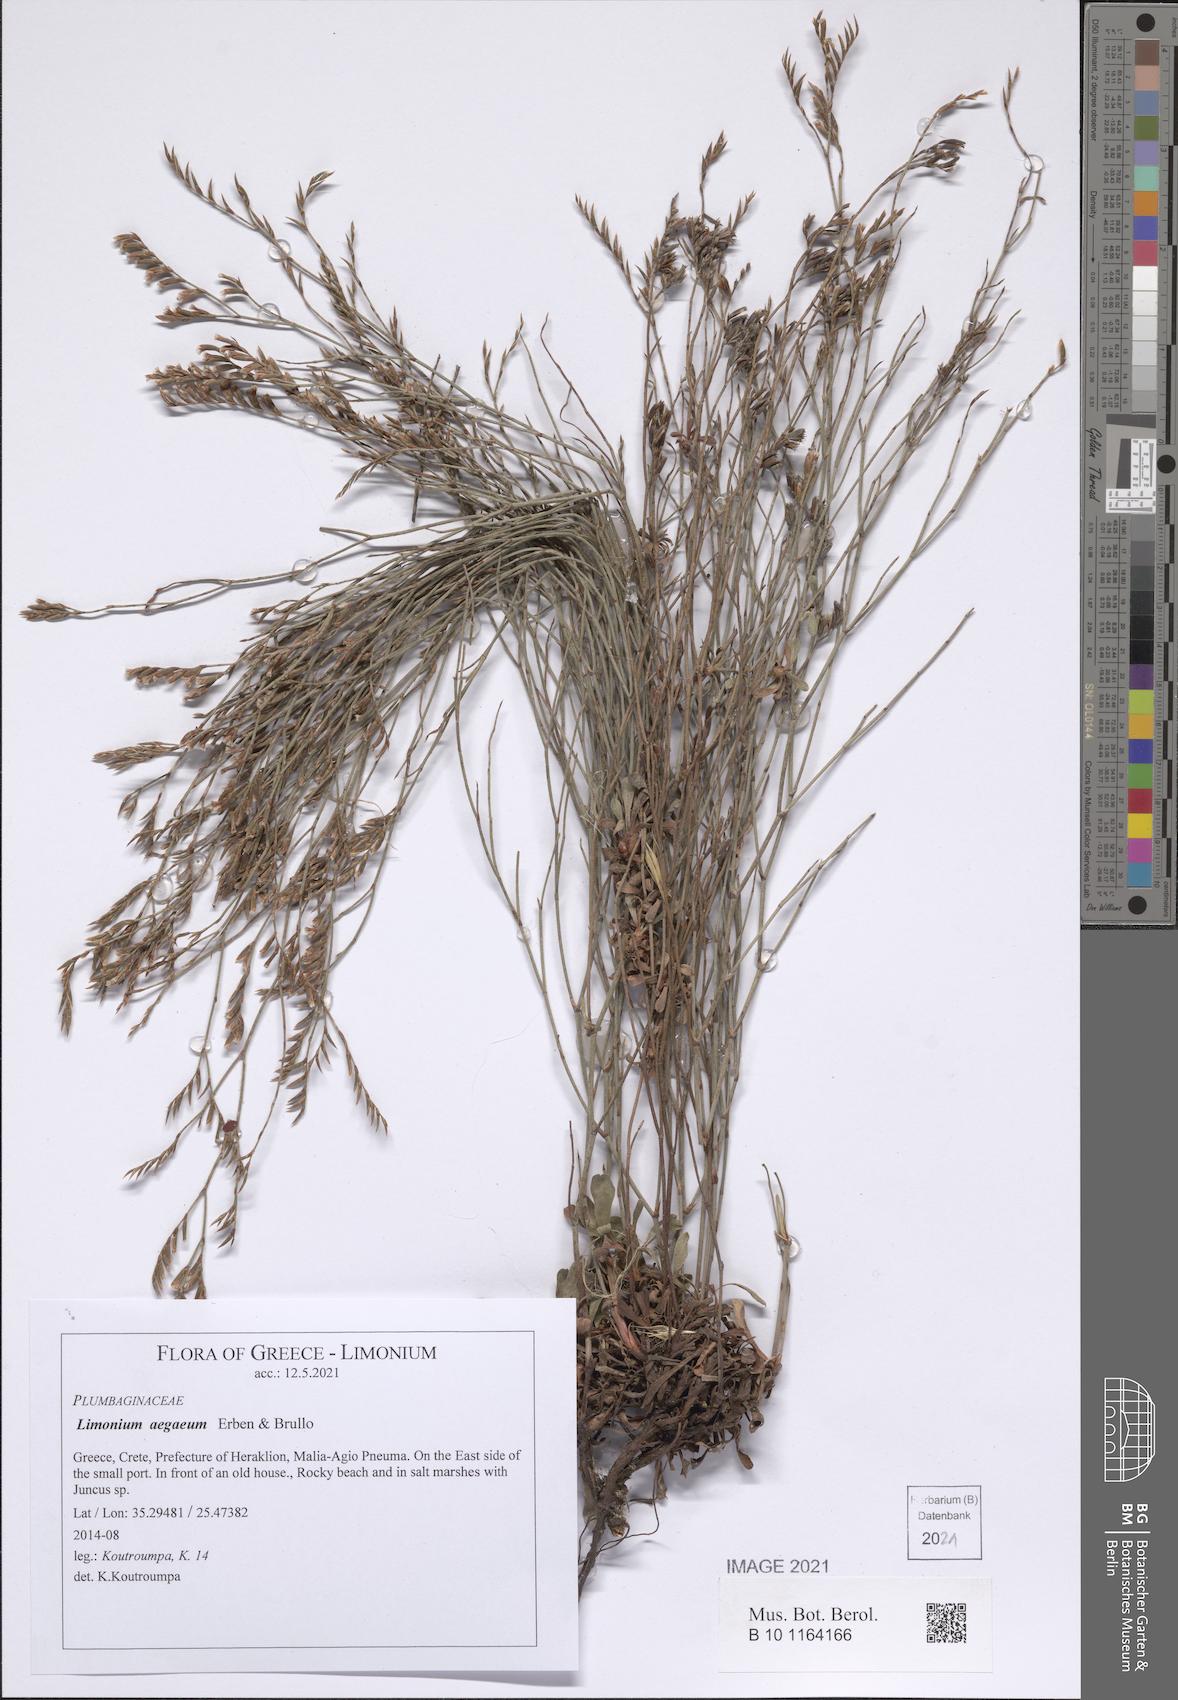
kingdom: Plantae
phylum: Tracheophyta
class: Magnoliopsida
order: Caryophyllales
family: Plumbaginaceae
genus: Limonium
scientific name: Limonium aegaeum
